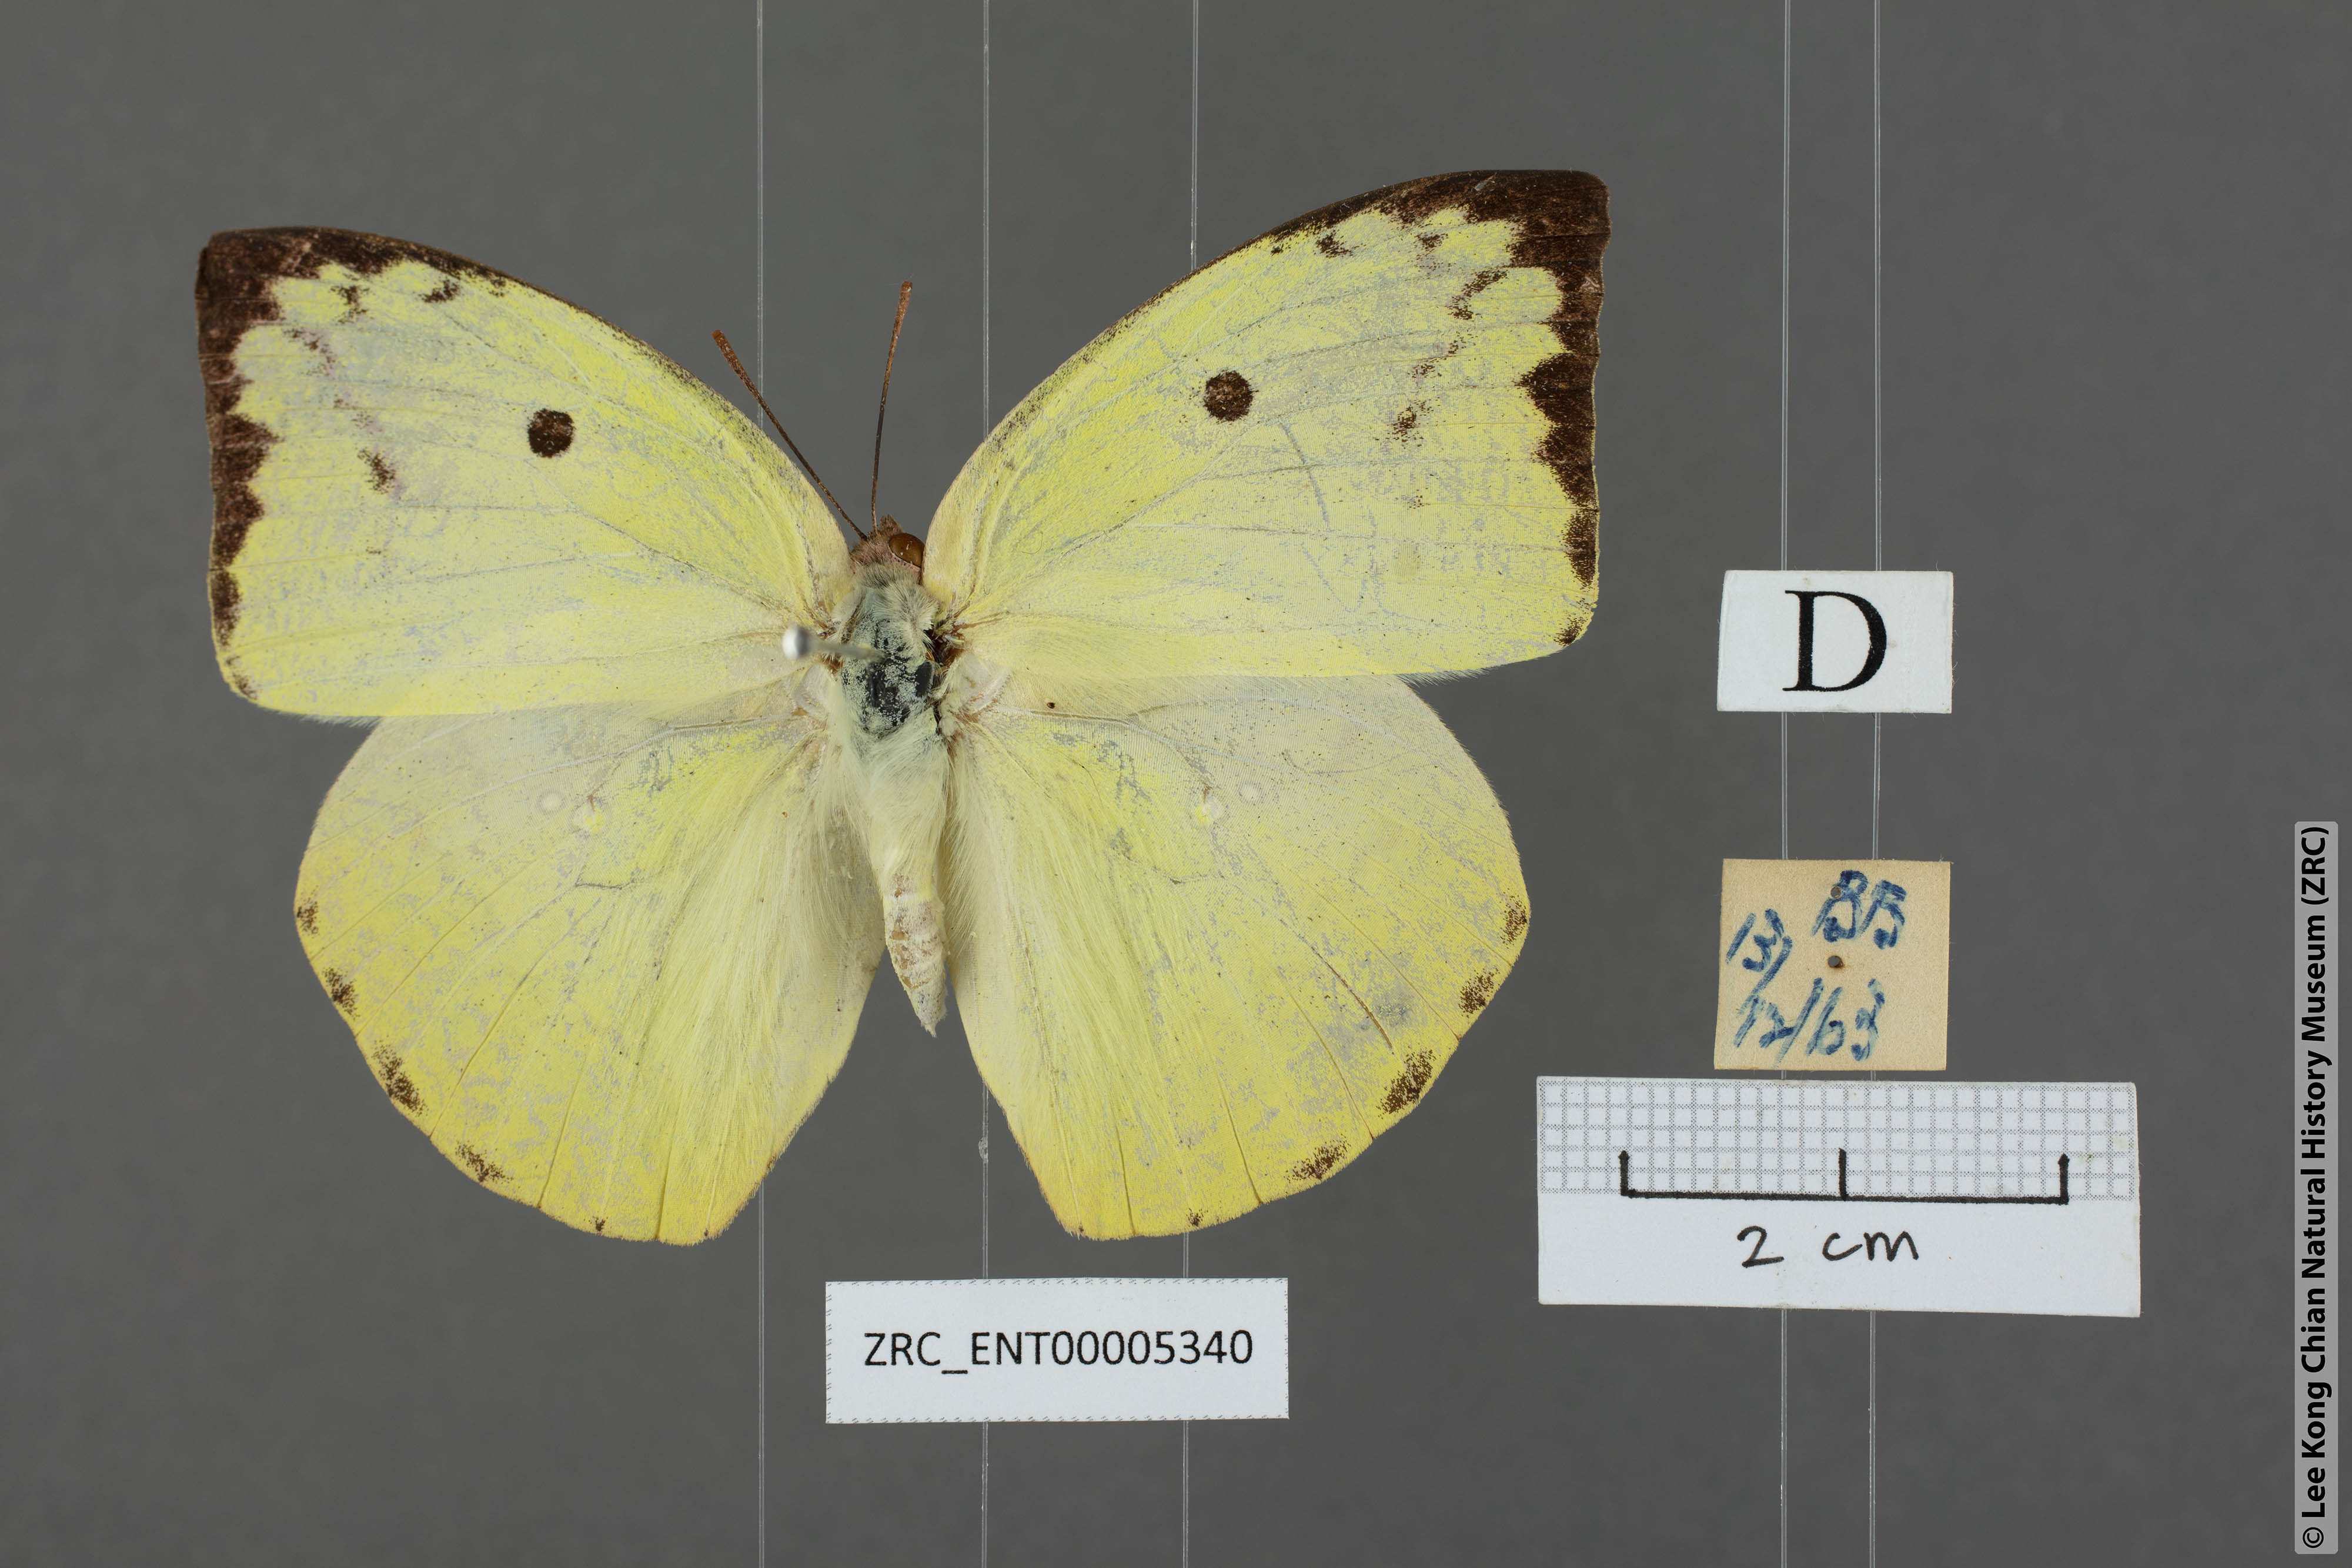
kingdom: Animalia
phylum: Arthropoda
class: Insecta
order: Lepidoptera
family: Pieridae
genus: Catopsilia
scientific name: Catopsilia pomona
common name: Common emigrant
